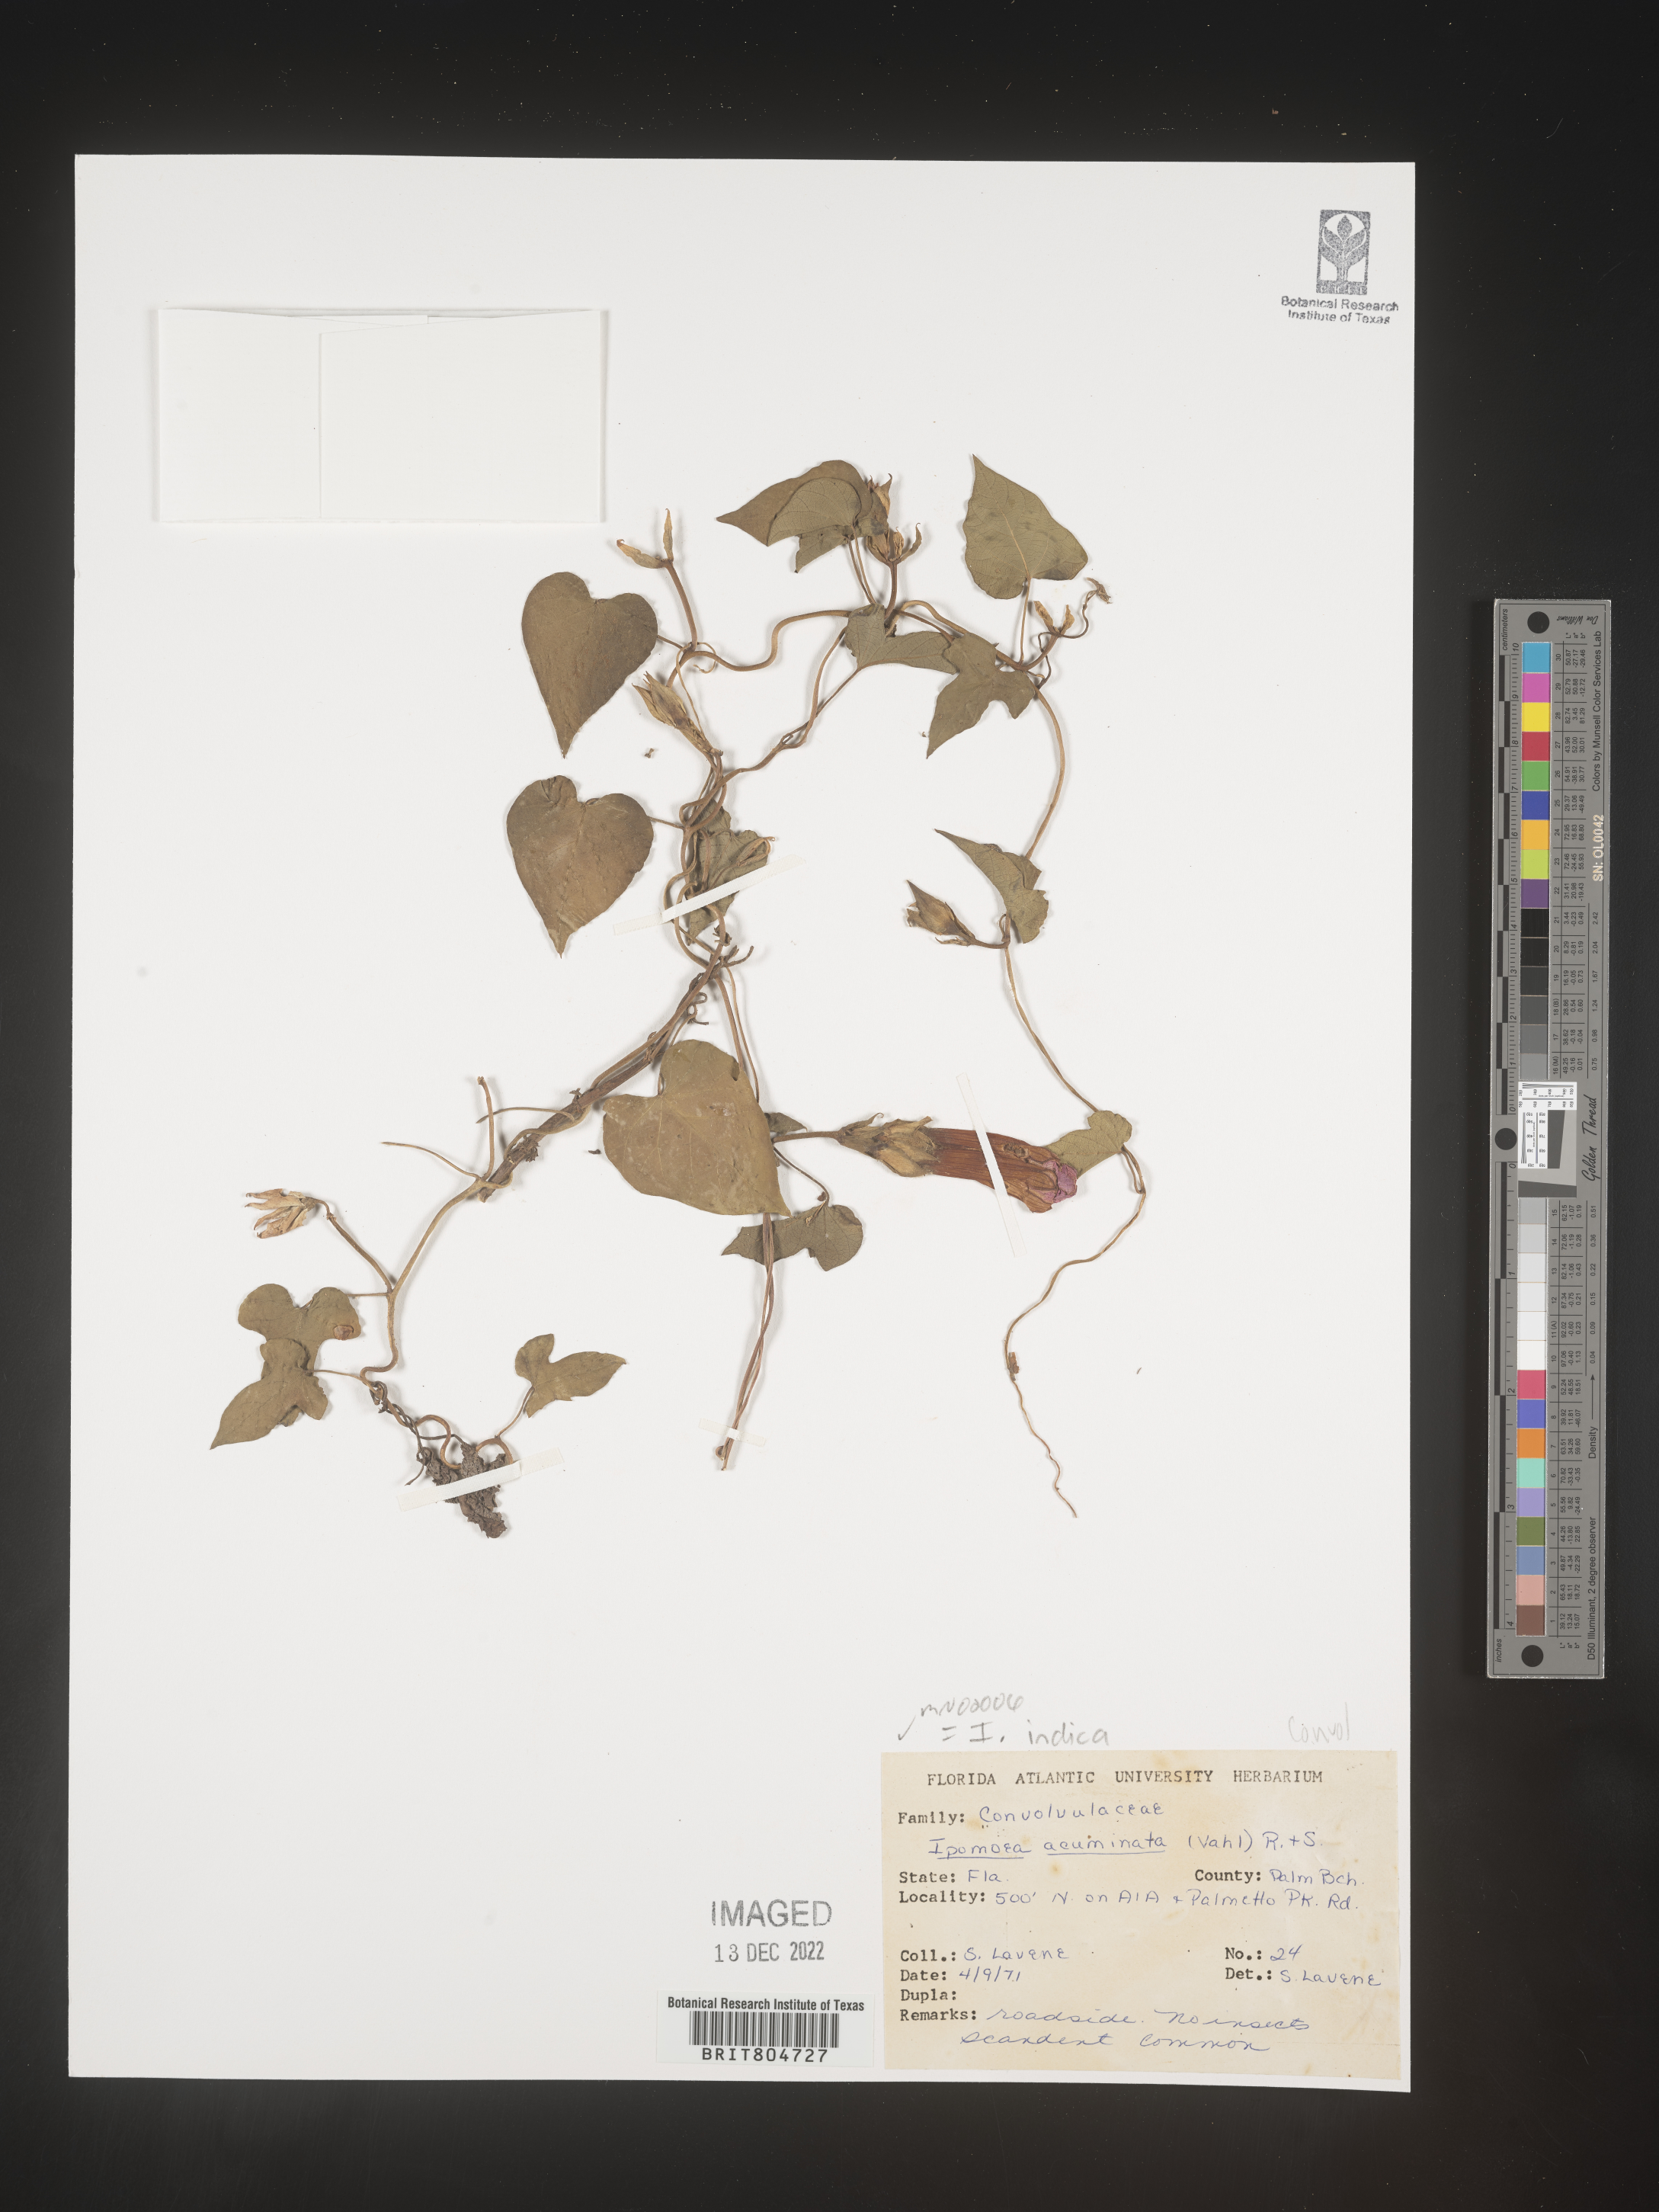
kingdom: Plantae
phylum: Tracheophyta
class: Magnoliopsida
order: Solanales
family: Convolvulaceae
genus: Ipomoea
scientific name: Ipomoea indica
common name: Blue dawnflower
